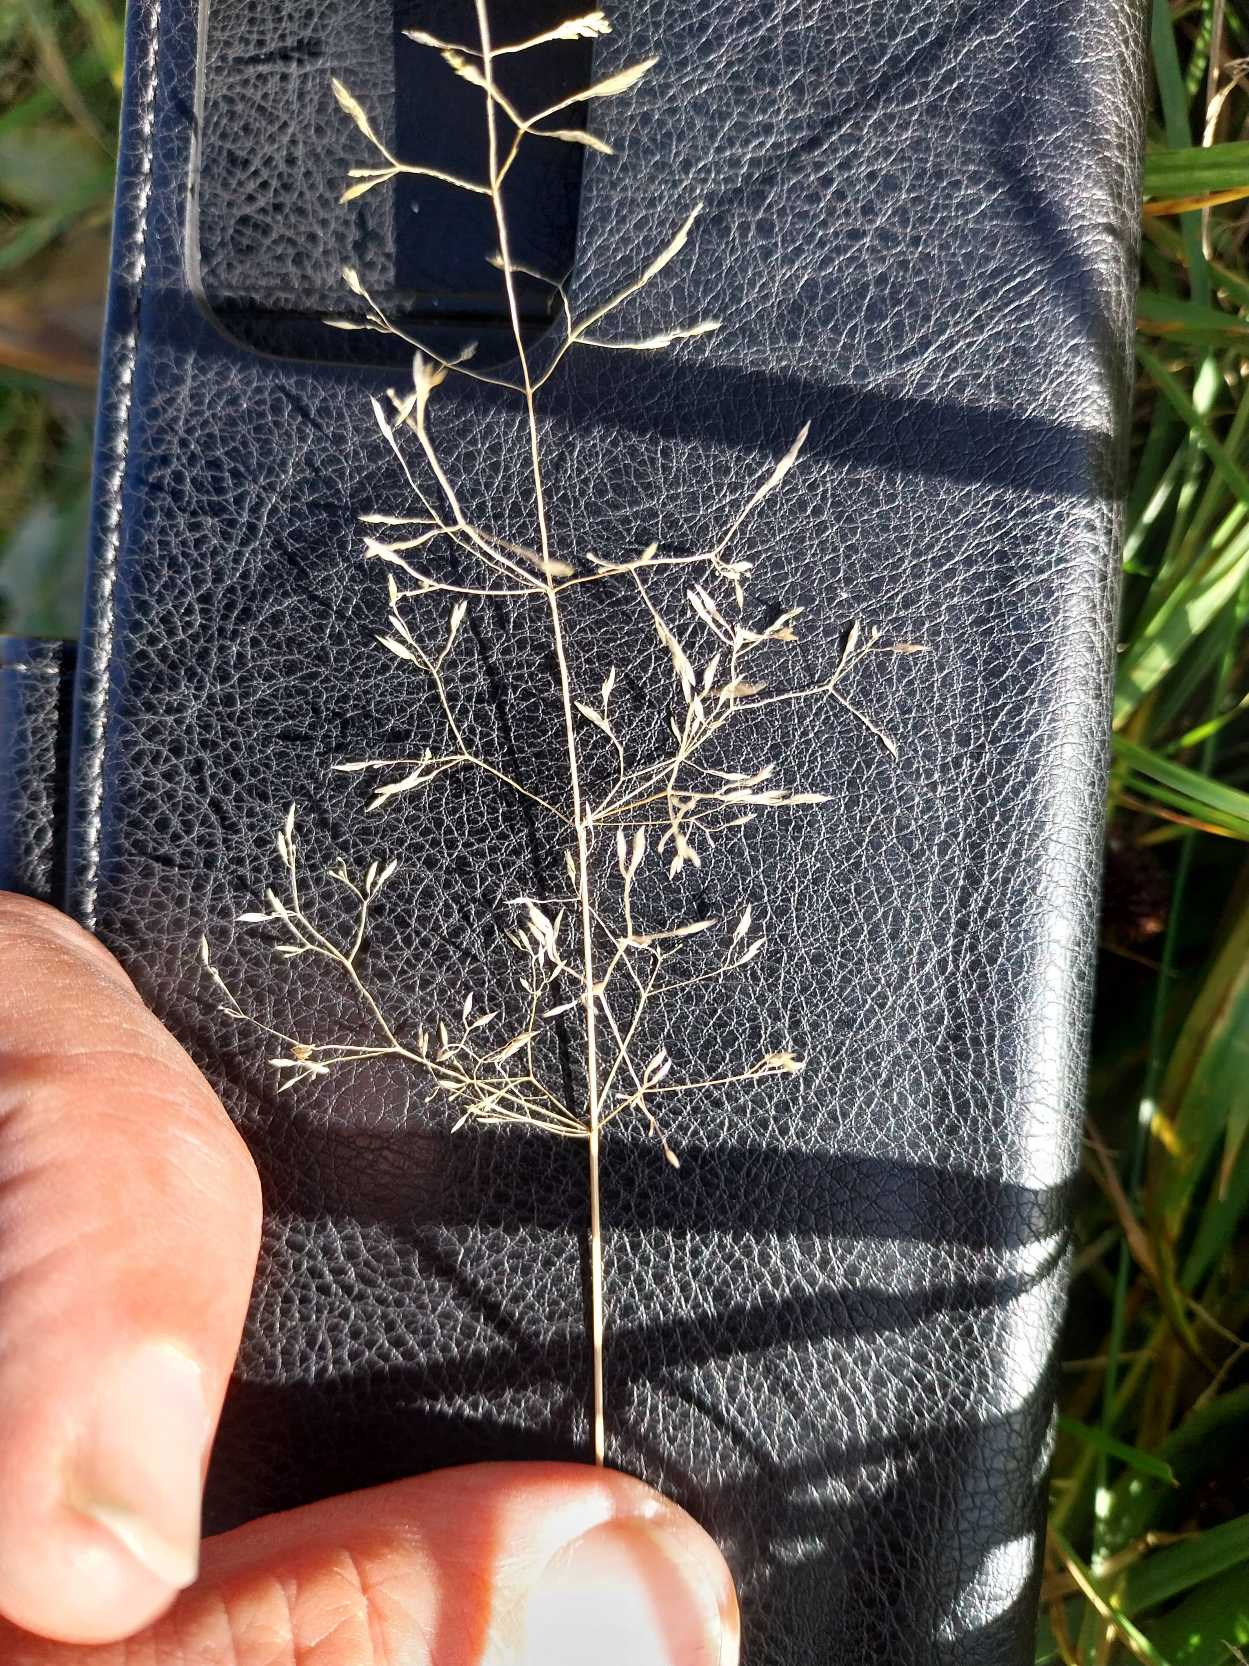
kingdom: Plantae
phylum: Tracheophyta
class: Liliopsida
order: Poales
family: Poaceae
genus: Agrostis
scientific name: Agrostis capillaris
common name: Almindelig hvene
